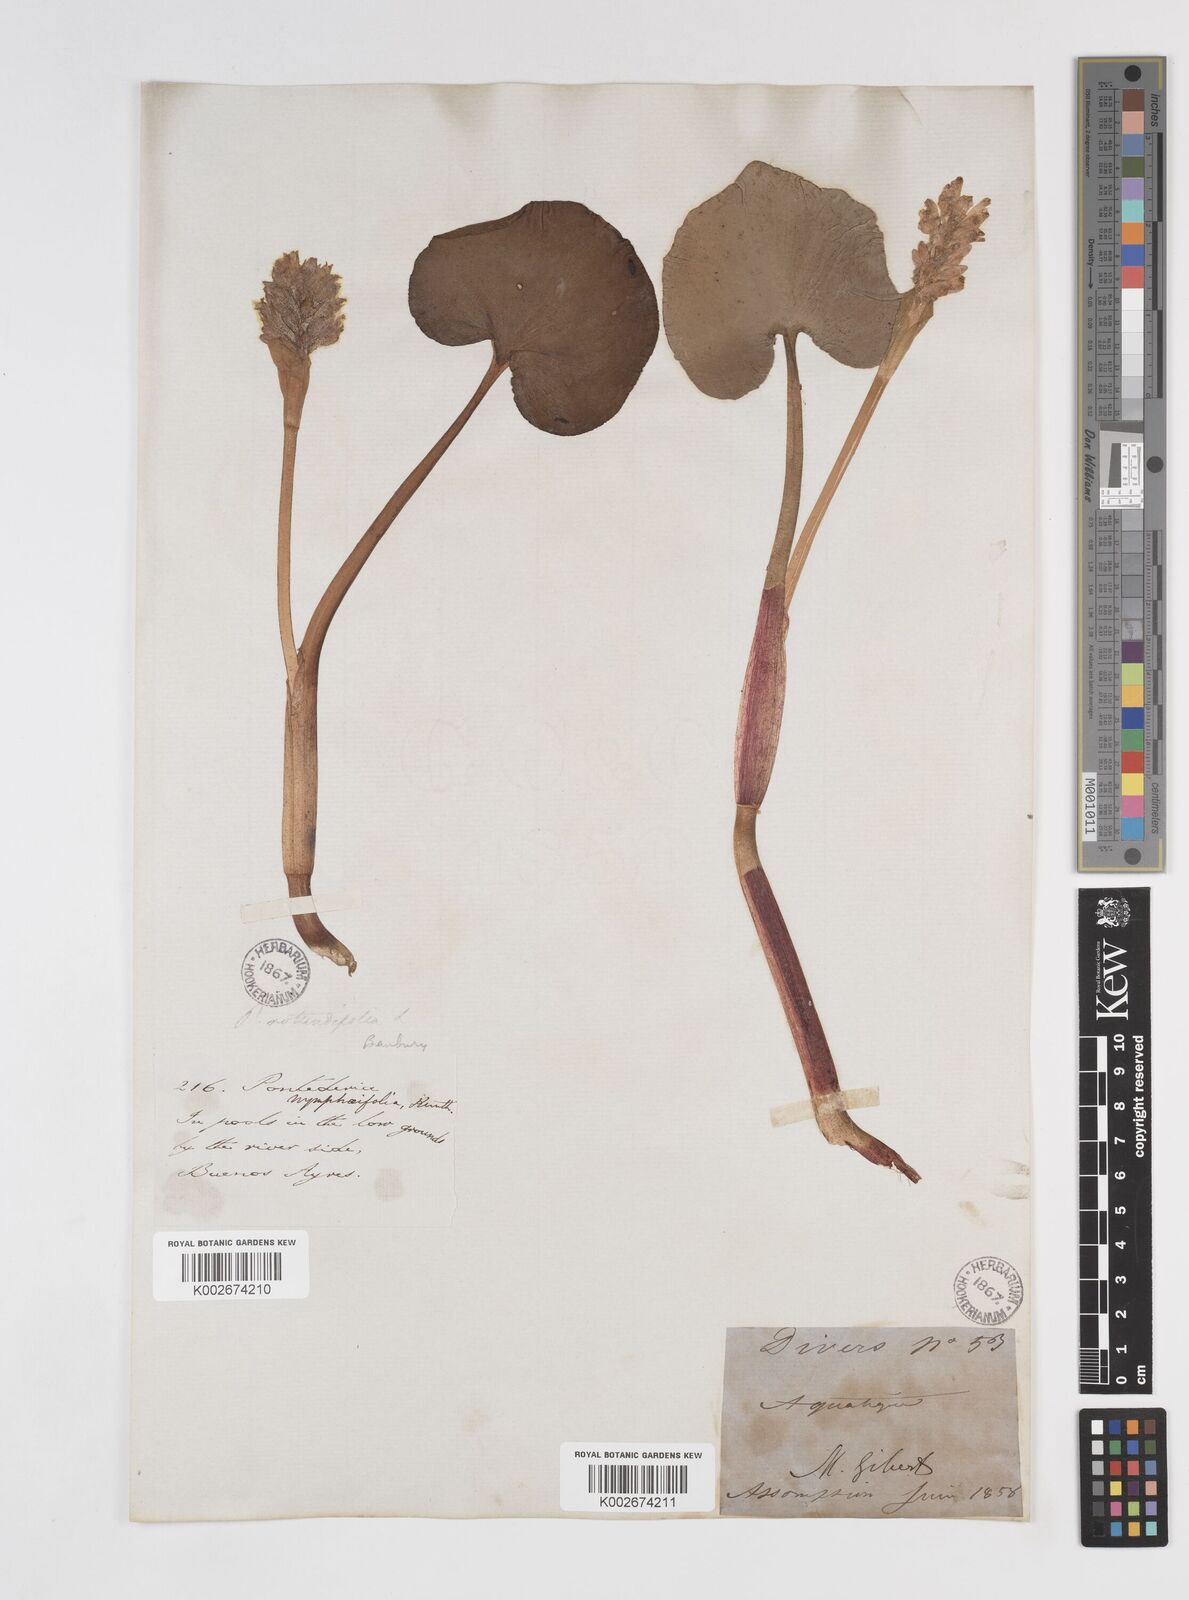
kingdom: Plantae
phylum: Tracheophyta
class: Liliopsida
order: Commelinales
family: Pontederiaceae
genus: Pontederia
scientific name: Pontederia rotundifolia
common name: Tropical pickerel-weed
